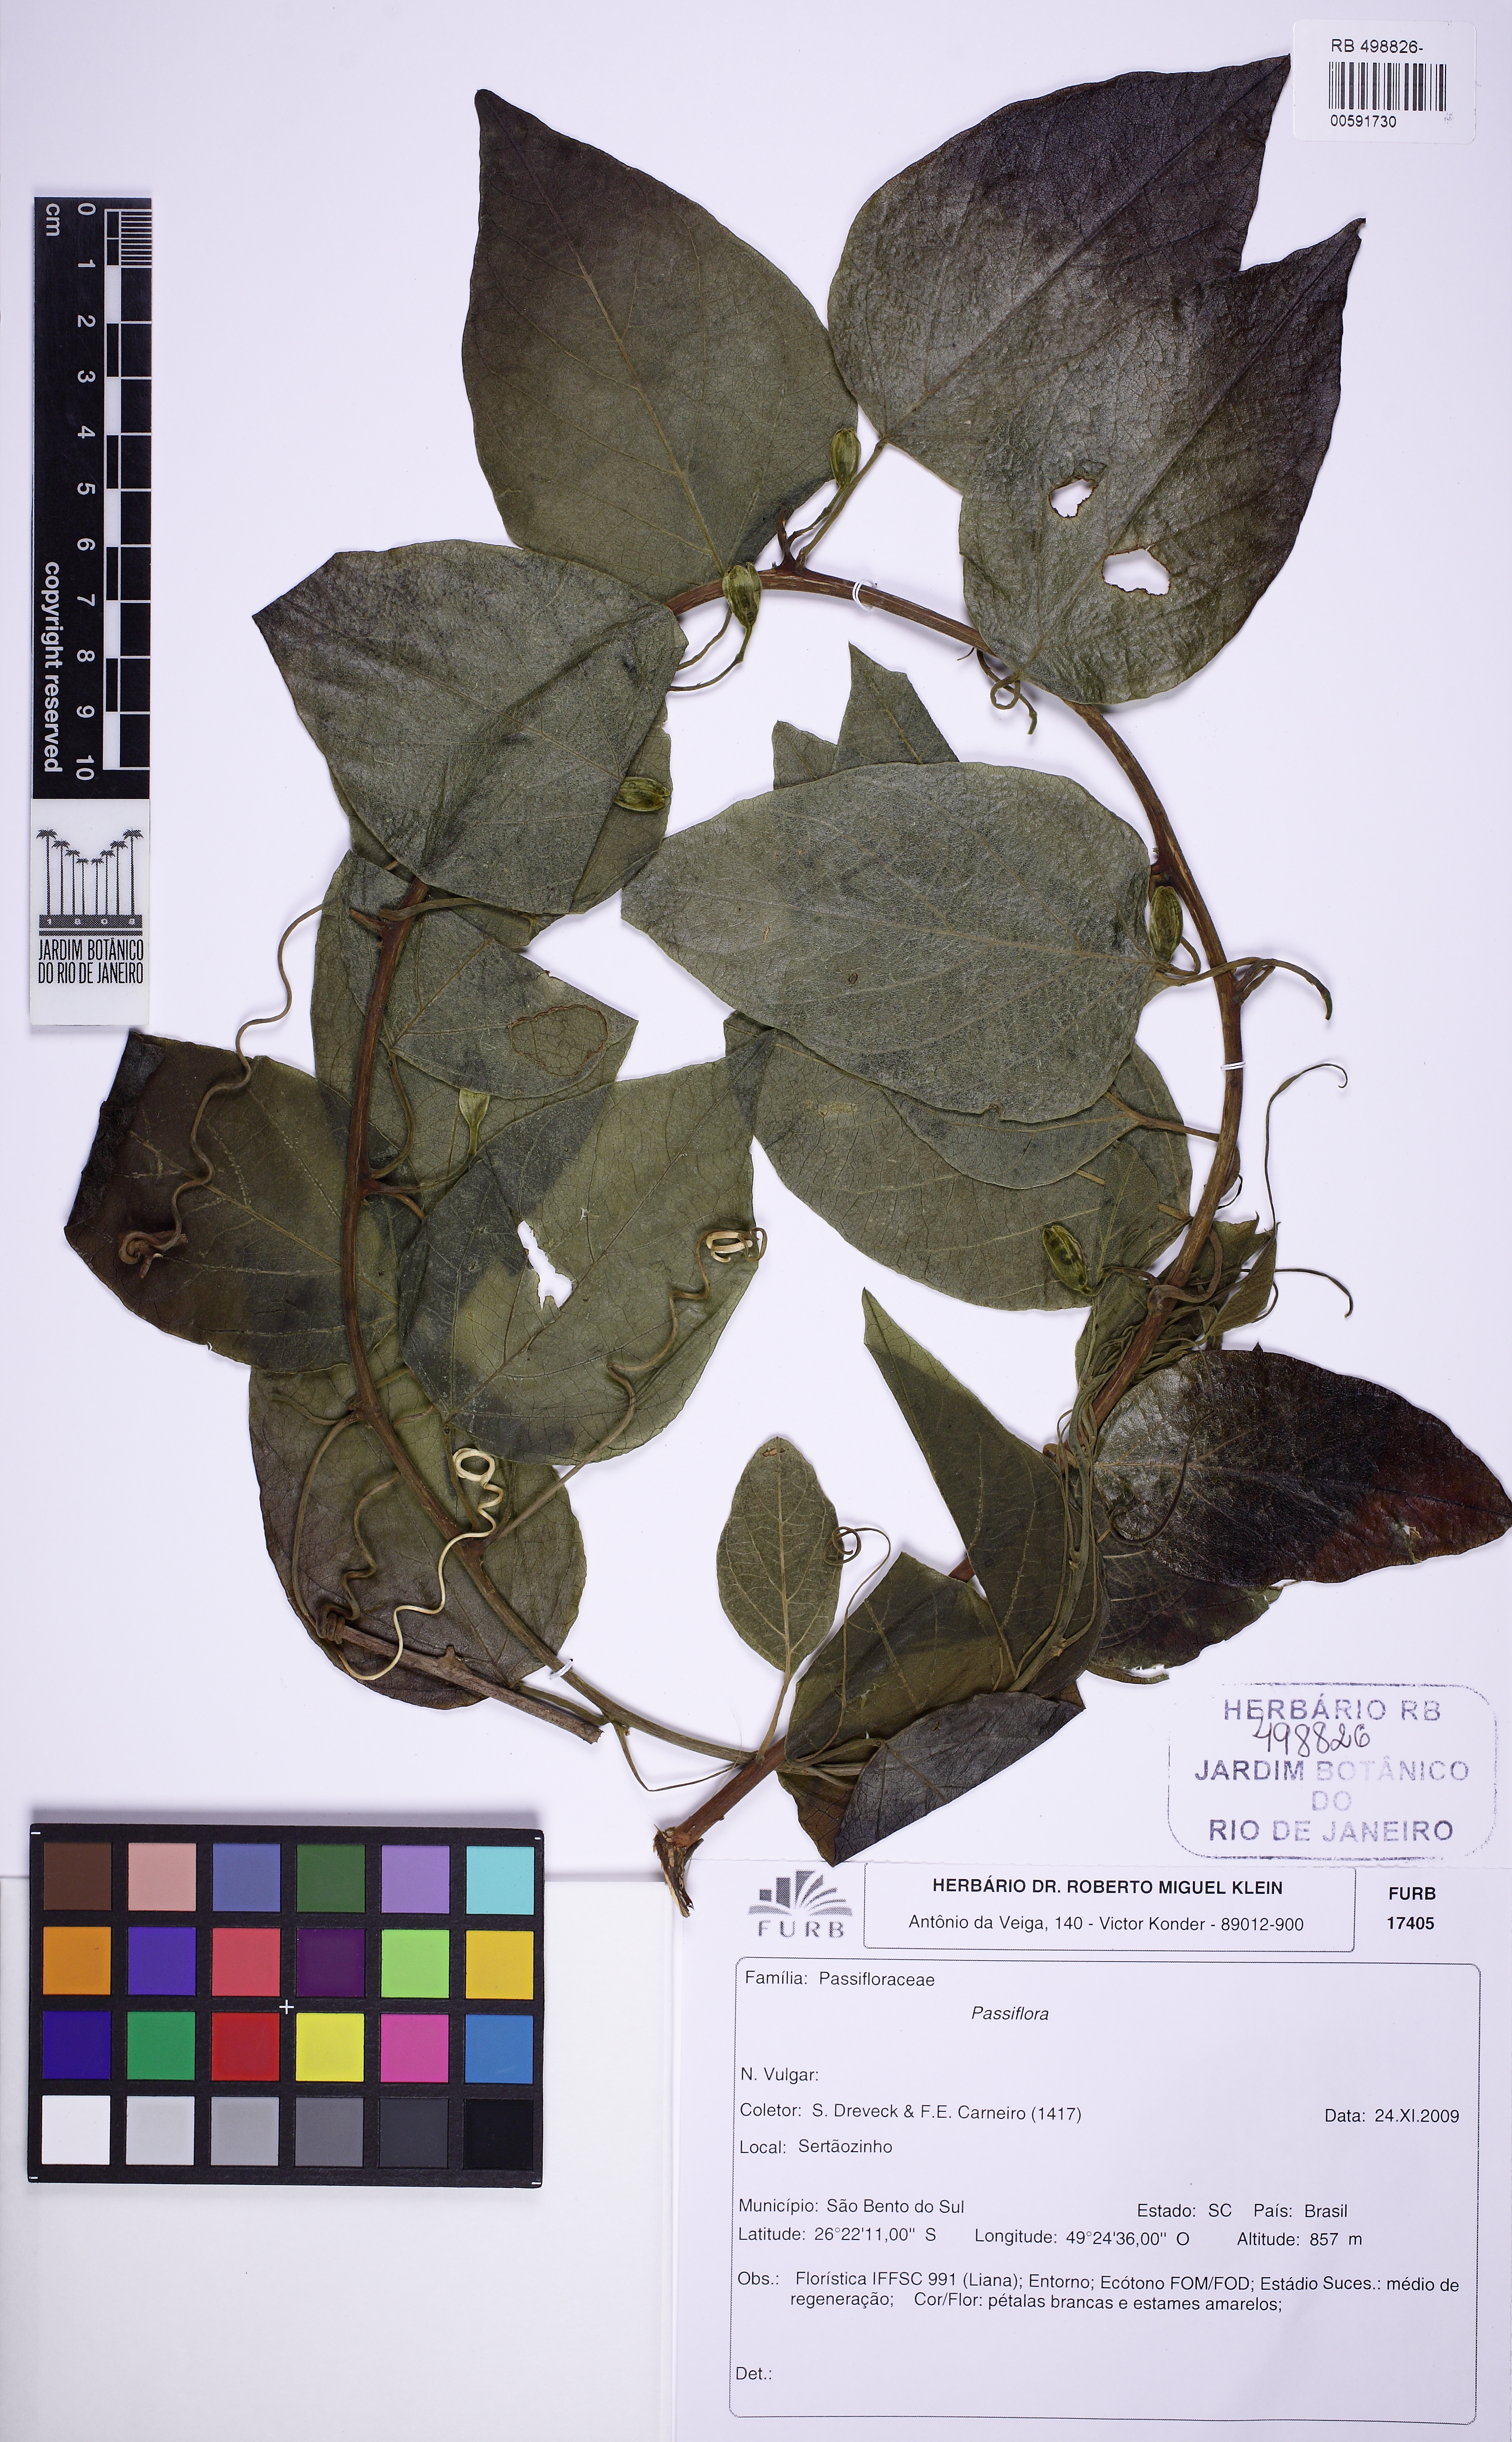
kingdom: Plantae
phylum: Tracheophyta
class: Magnoliopsida
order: Malpighiales
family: Passifloraceae
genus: Passiflora
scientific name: Passiflora haematostigma
